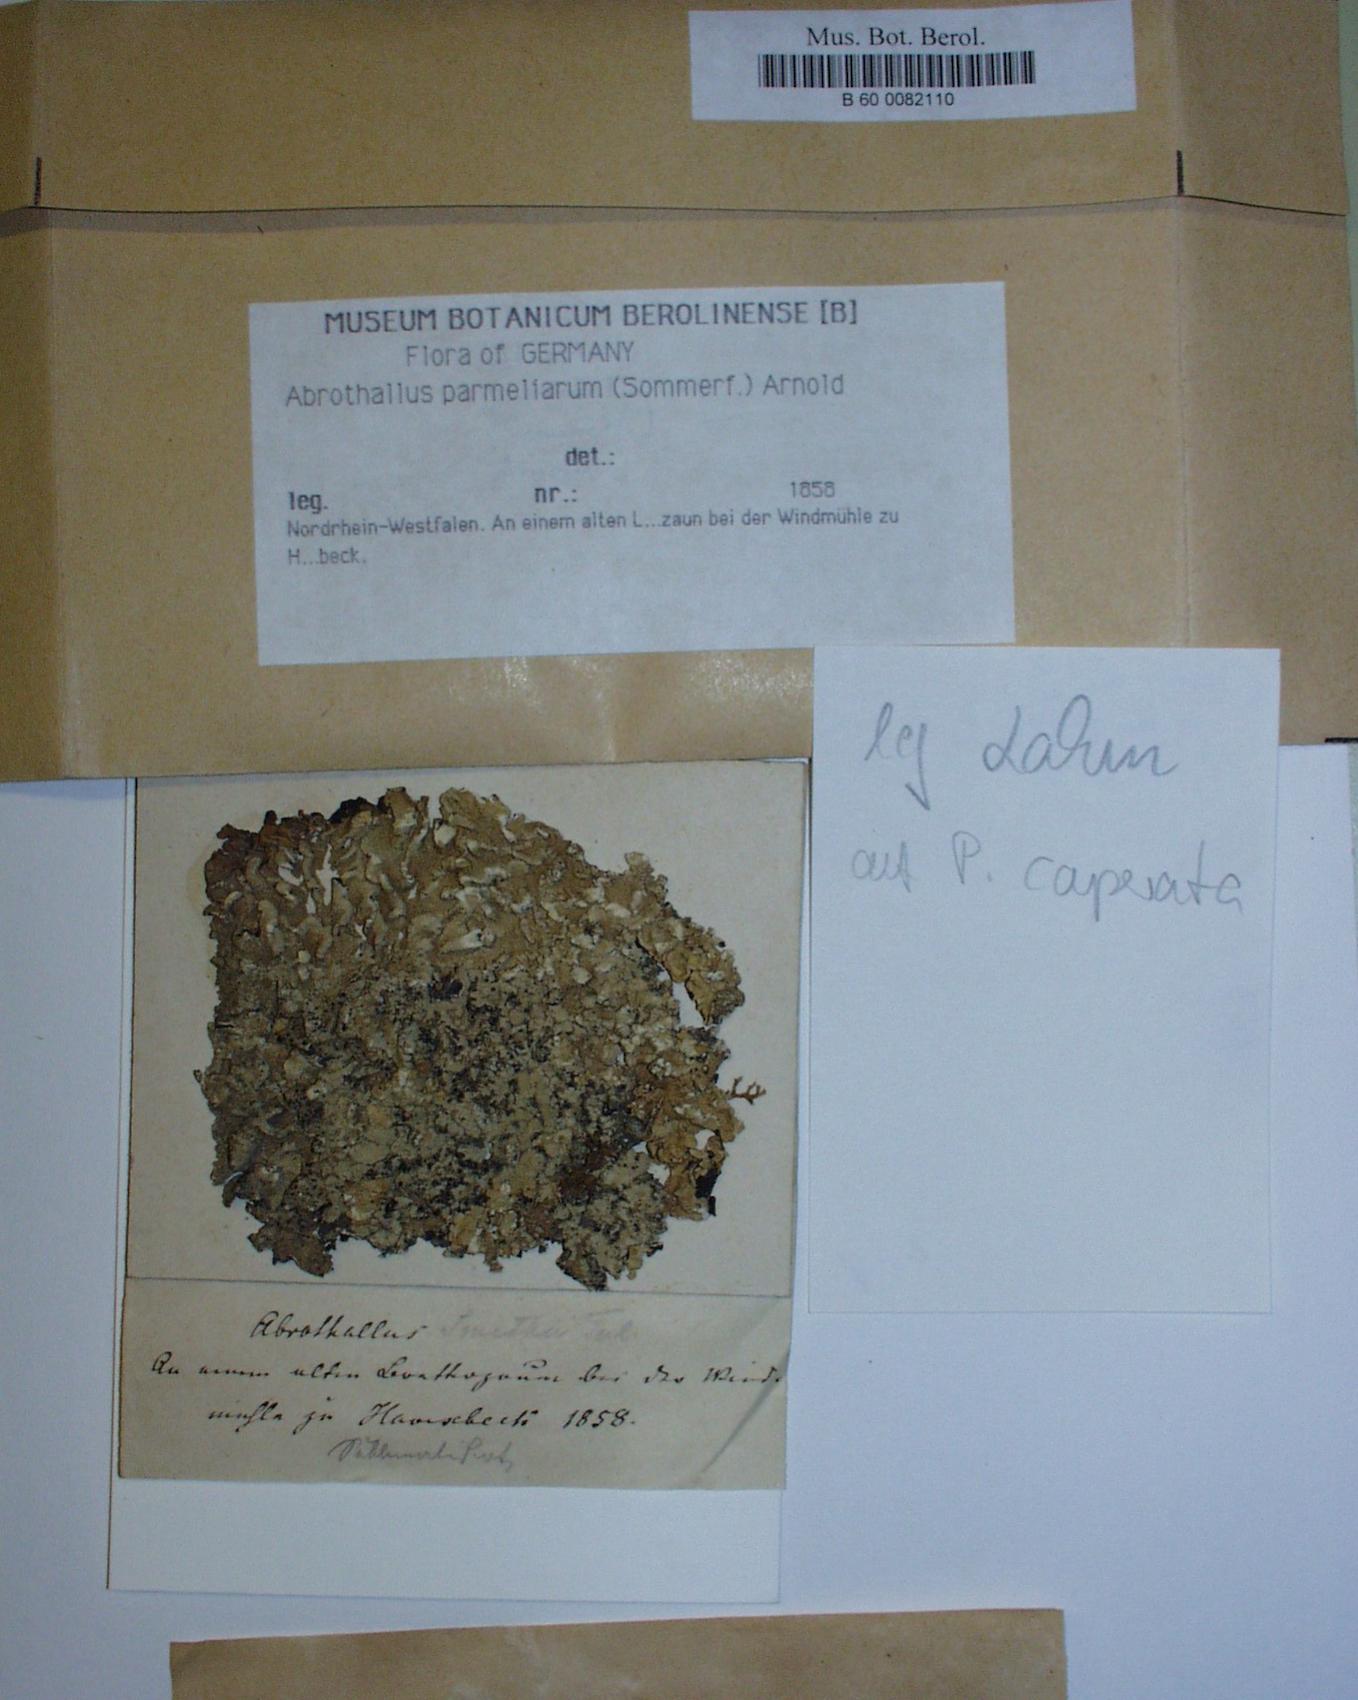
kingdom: Fungi
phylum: Ascomycota
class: Dothideomycetes
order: Abrothallales
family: Abrothallaceae
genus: Abrothallus
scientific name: Abrothallus parmeliarum
